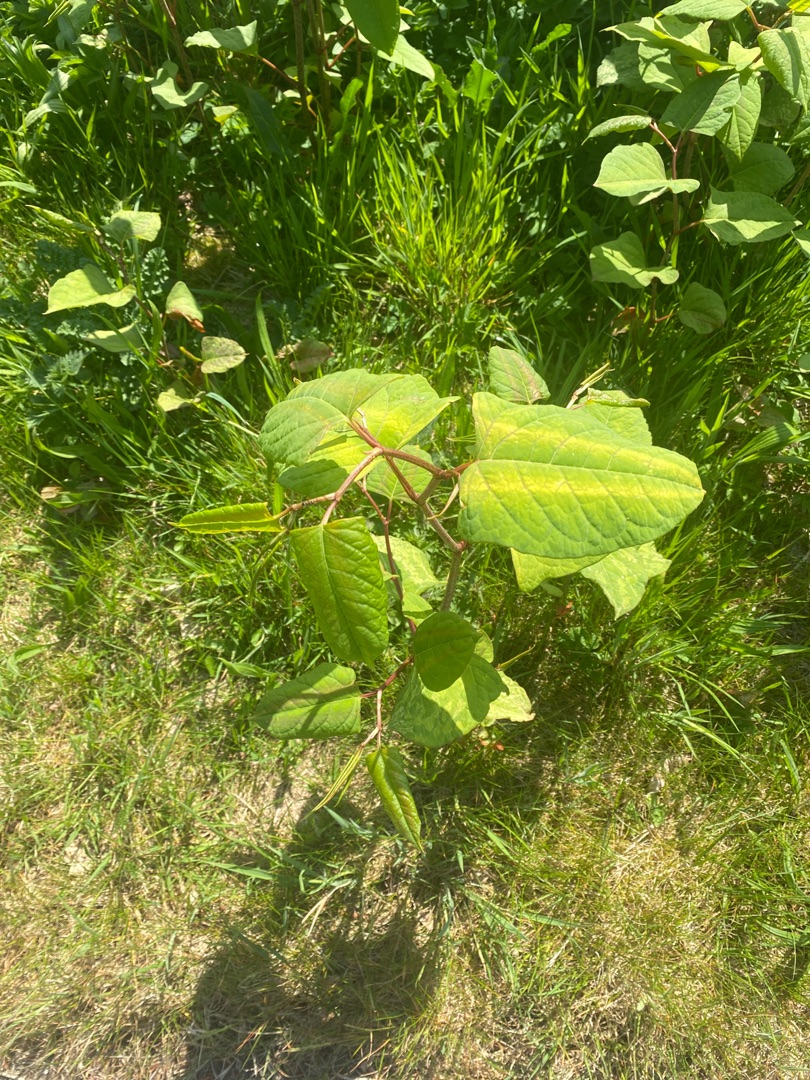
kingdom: Plantae
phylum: Tracheophyta
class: Magnoliopsida
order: Caryophyllales
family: Polygonaceae
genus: Reynoutria
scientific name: Reynoutria japonica
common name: Japan-pileurt
